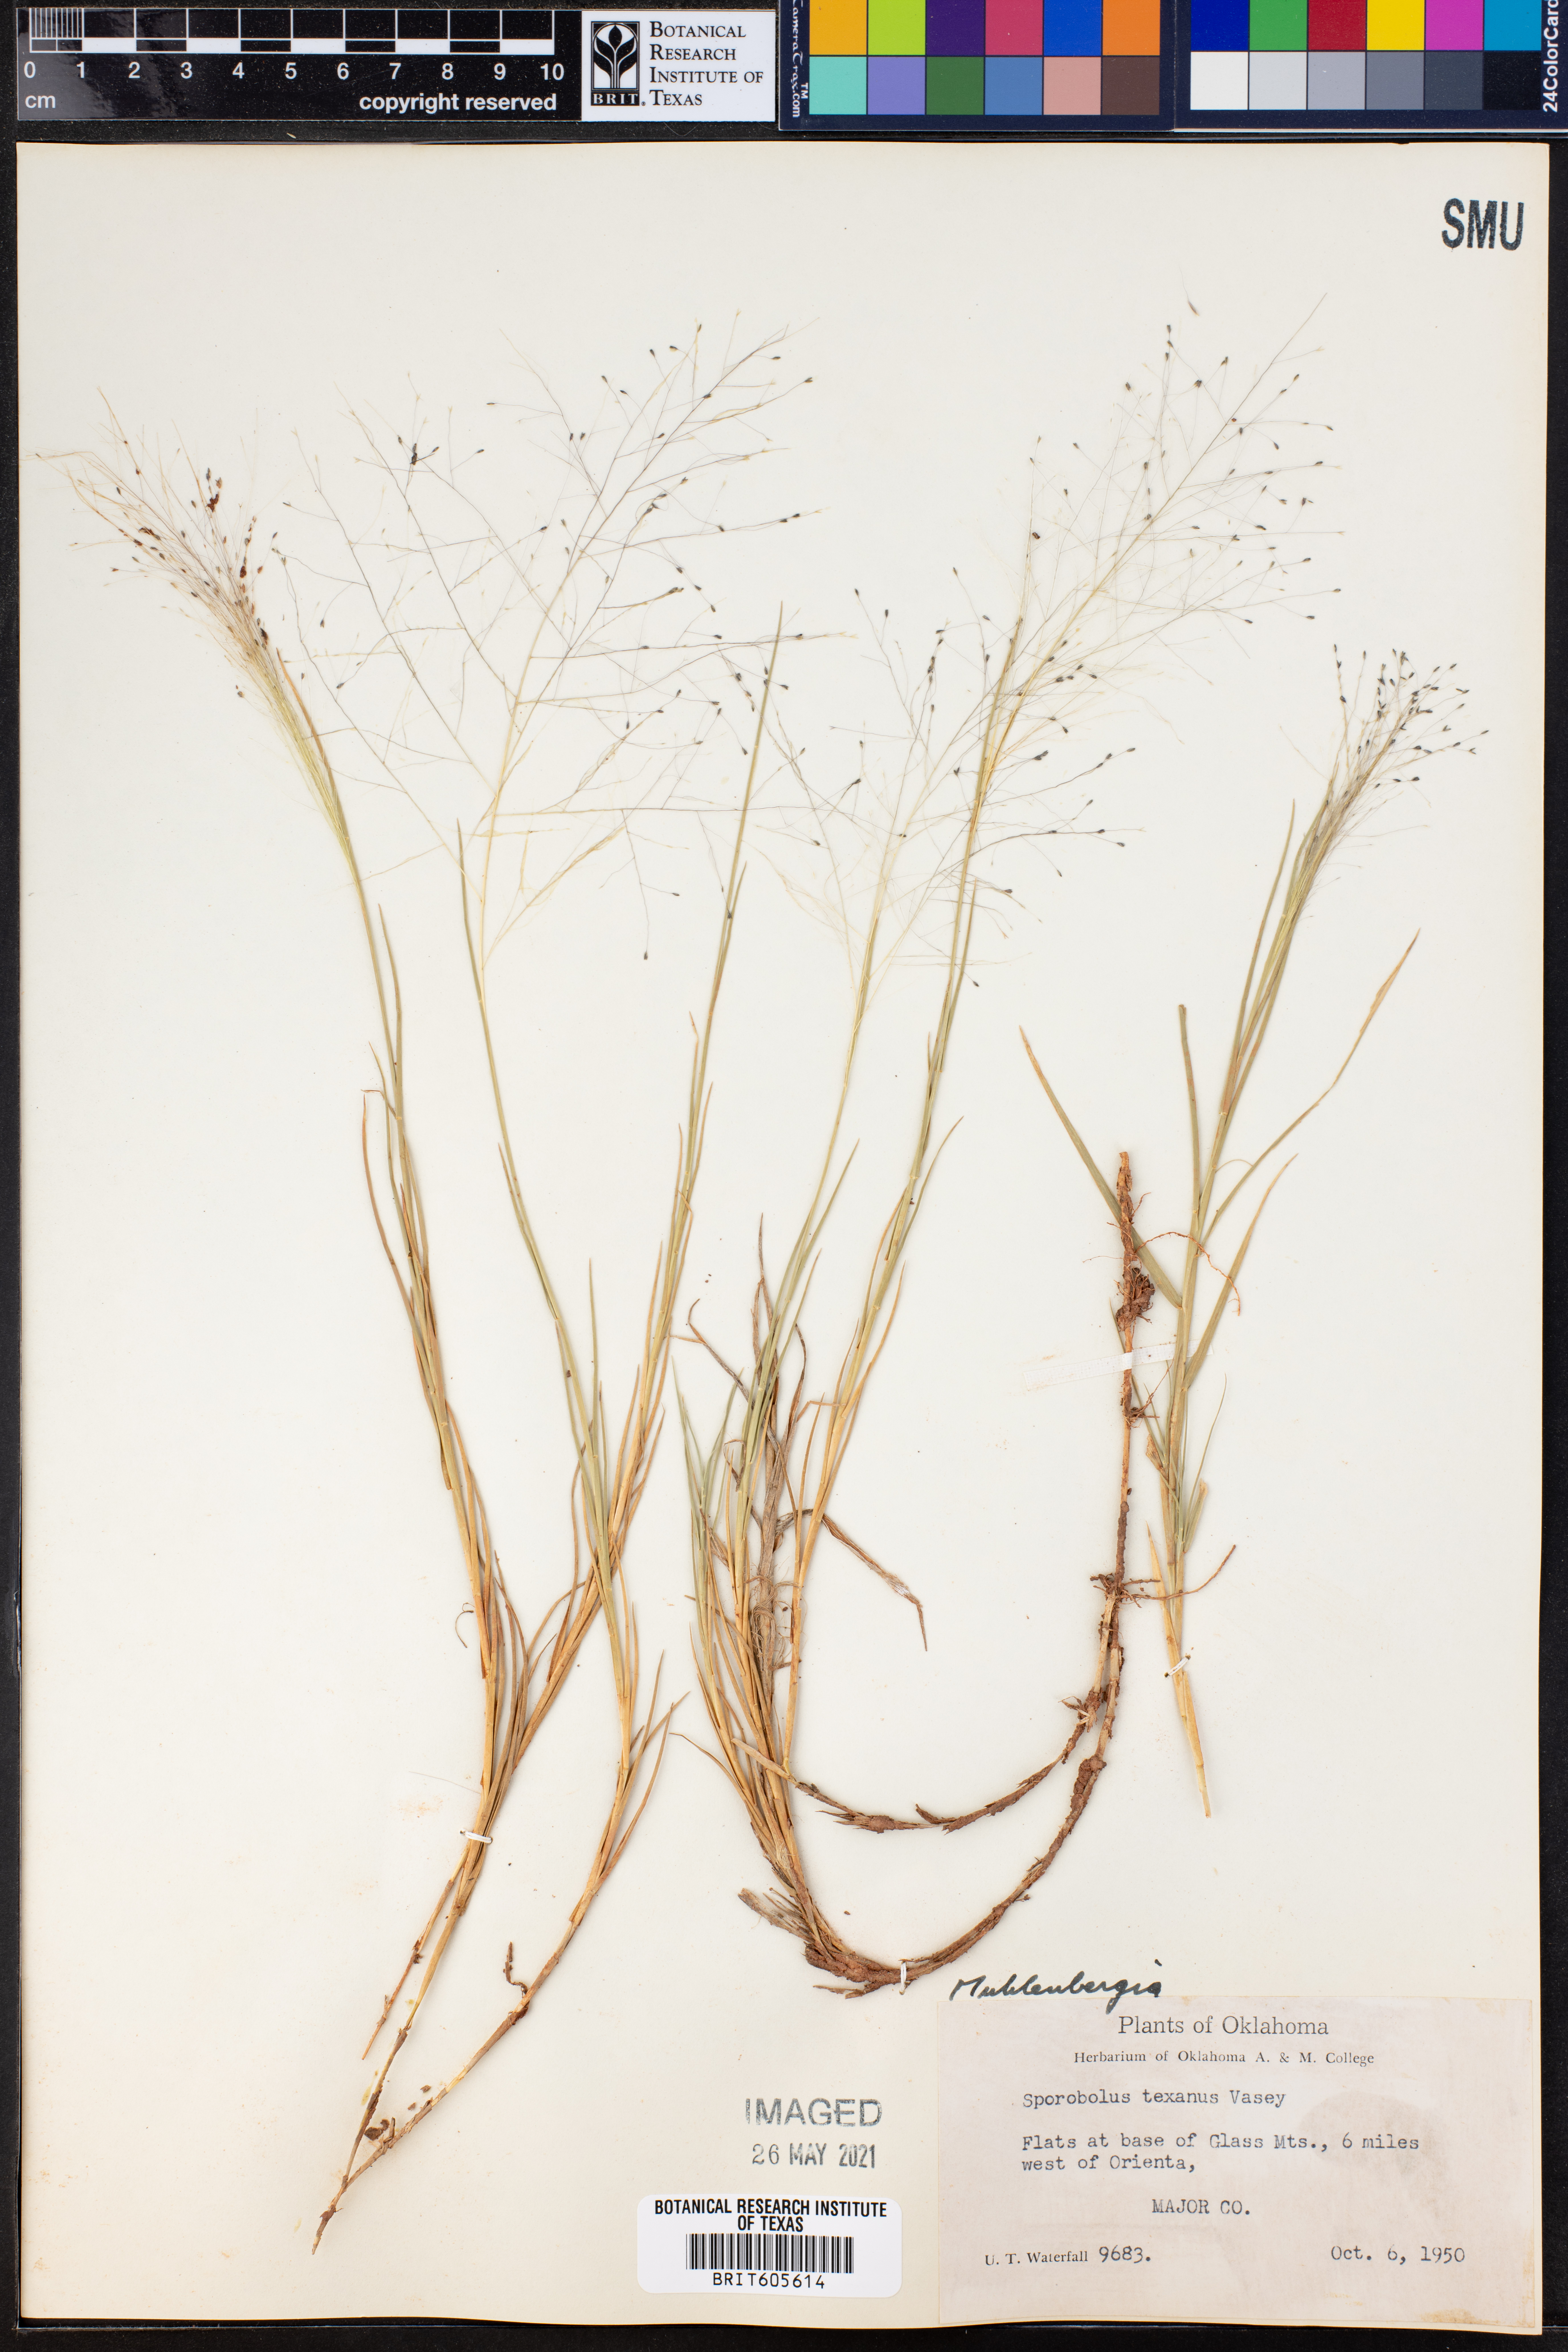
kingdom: Plantae
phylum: Tracheophyta
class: Liliopsida
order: Poales
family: Poaceae
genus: Muhlenbergia
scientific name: Muhlenbergia texana
